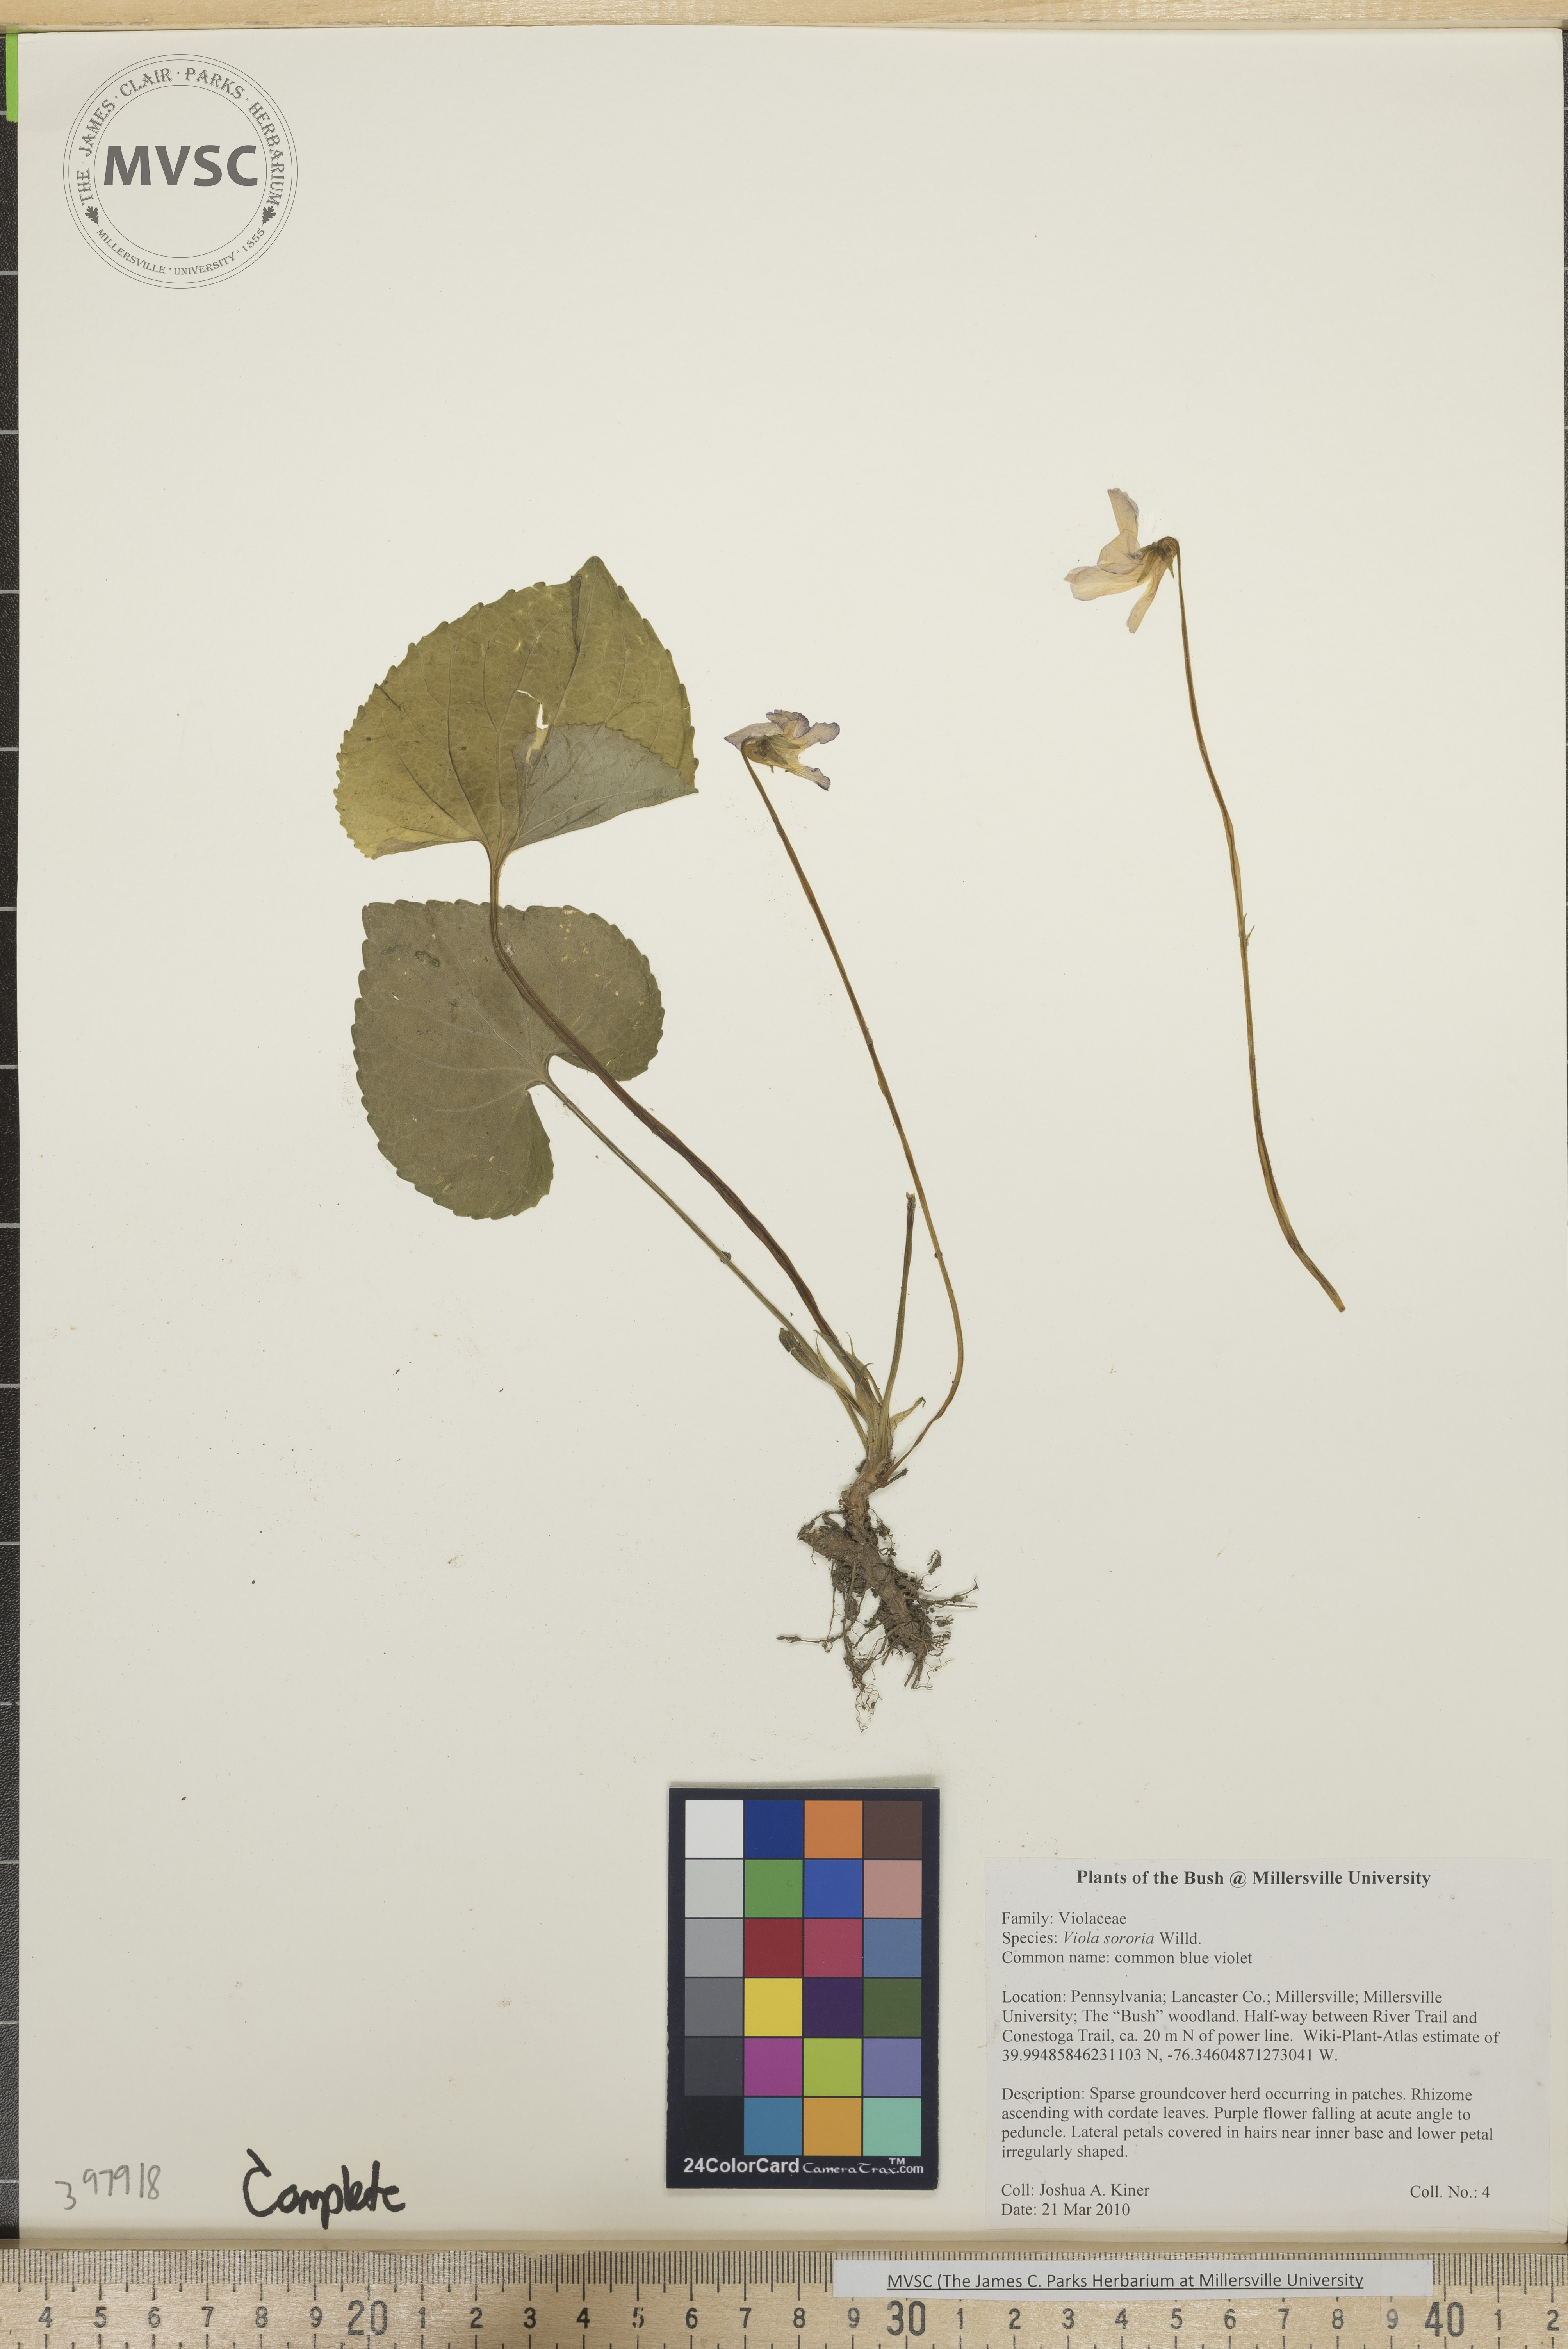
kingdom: Plantae
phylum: Tracheophyta
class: Magnoliopsida
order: Malpighiales
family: Violaceae
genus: Viola
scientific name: Viola sororia
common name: Common blue violet
